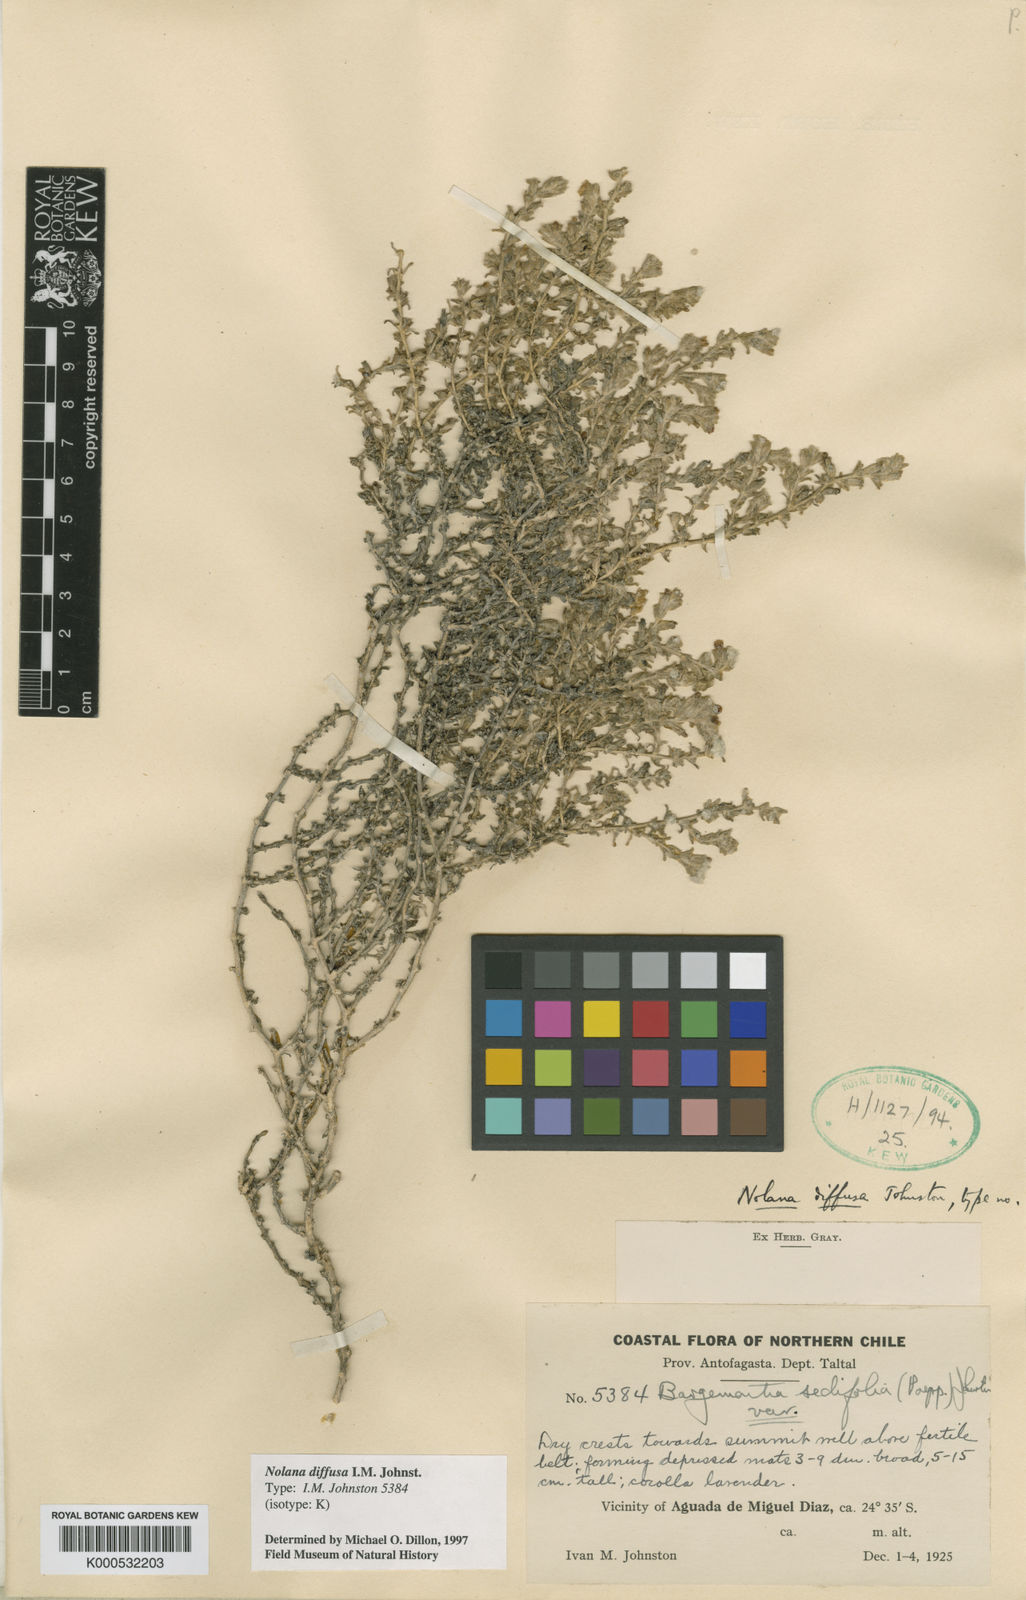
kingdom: Plantae
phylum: Tracheophyta
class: Magnoliopsida
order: Solanales
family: Solanaceae
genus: Nolana
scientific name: Nolana sedifolia
